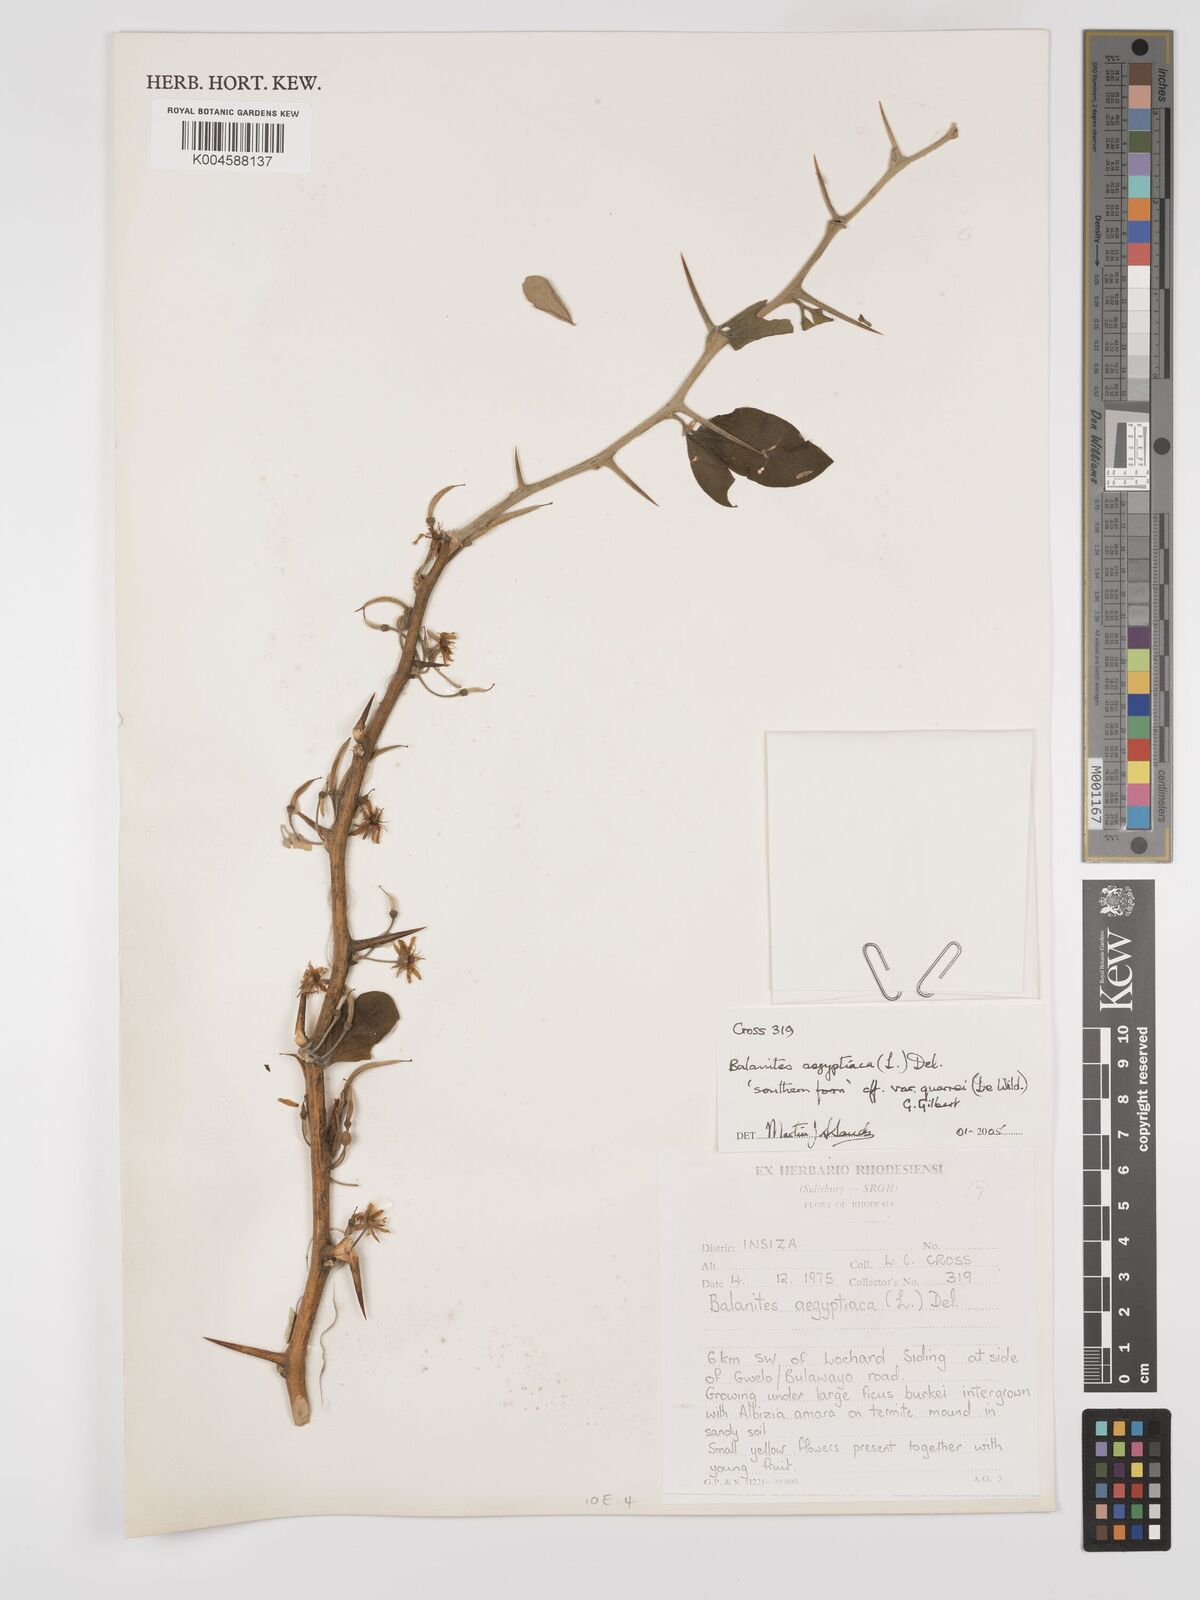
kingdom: Plantae
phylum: Tracheophyta
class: Magnoliopsida
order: Zygophyllales
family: Zygophyllaceae
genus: Balanites
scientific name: Balanites aegyptiaca
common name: Balanites
